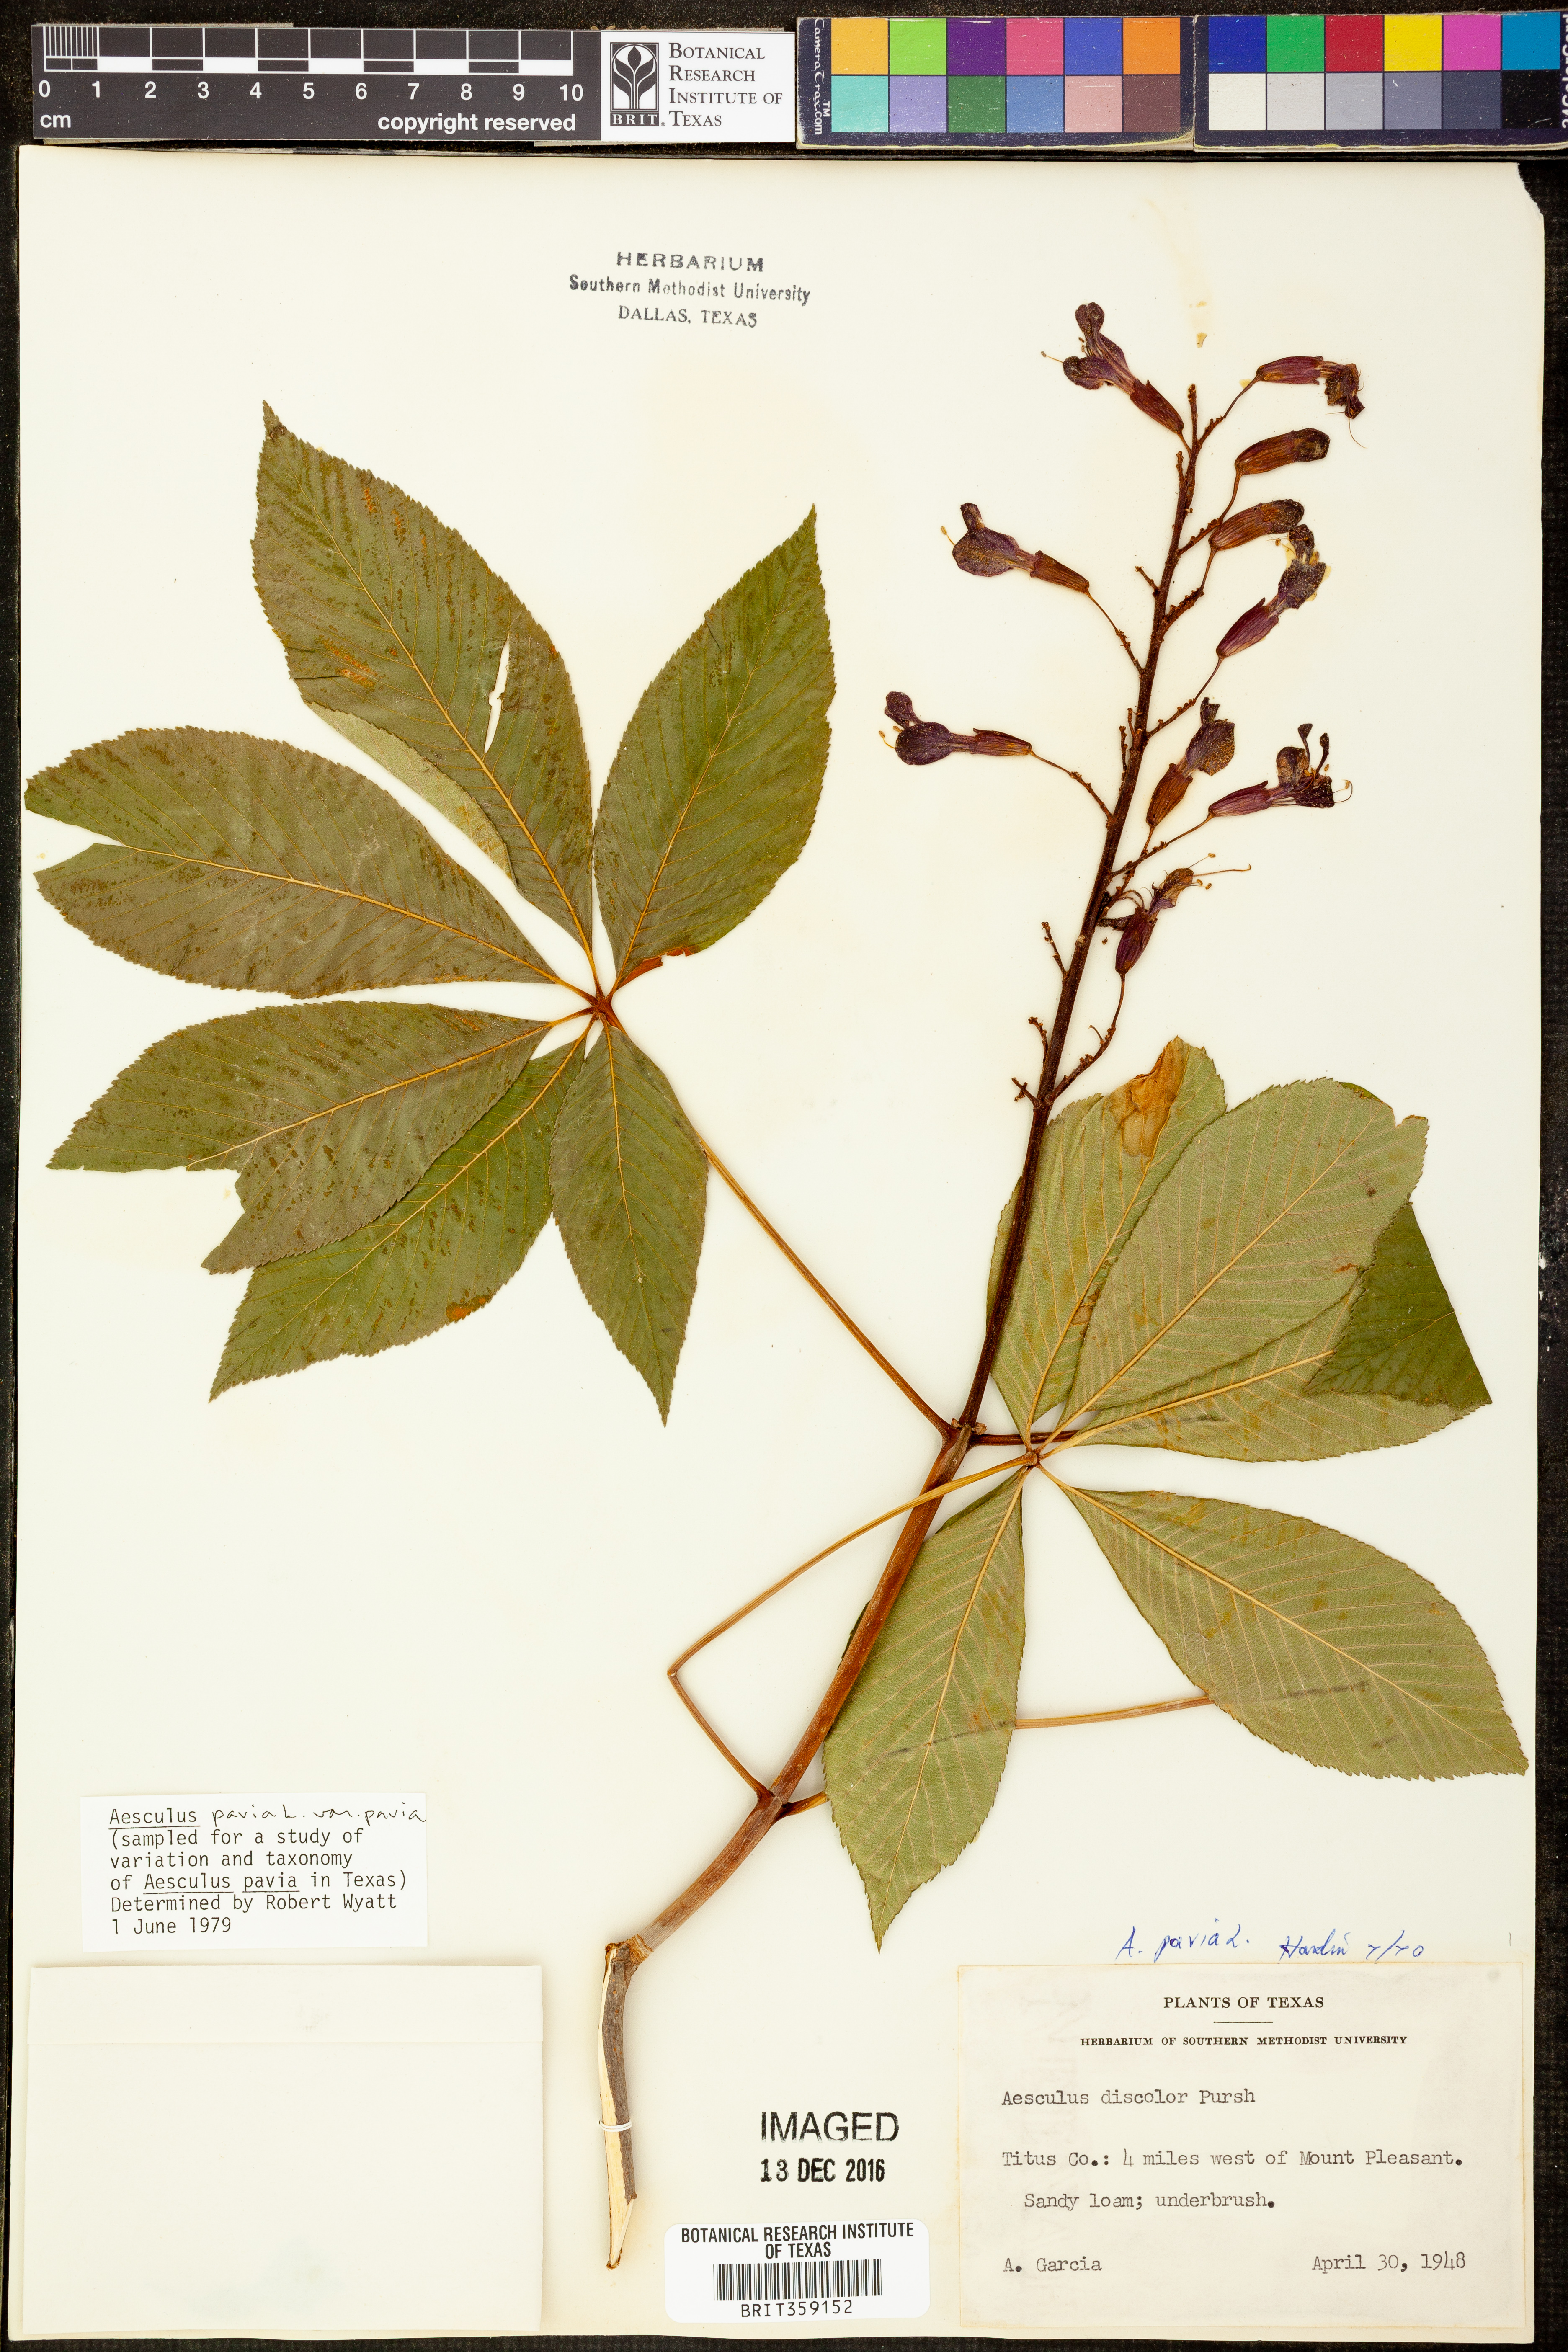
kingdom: Plantae
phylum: Tracheophyta
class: Magnoliopsida
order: Sapindales
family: Sapindaceae
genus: Aesculus
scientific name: Aesculus pavia
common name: Red buckeye
